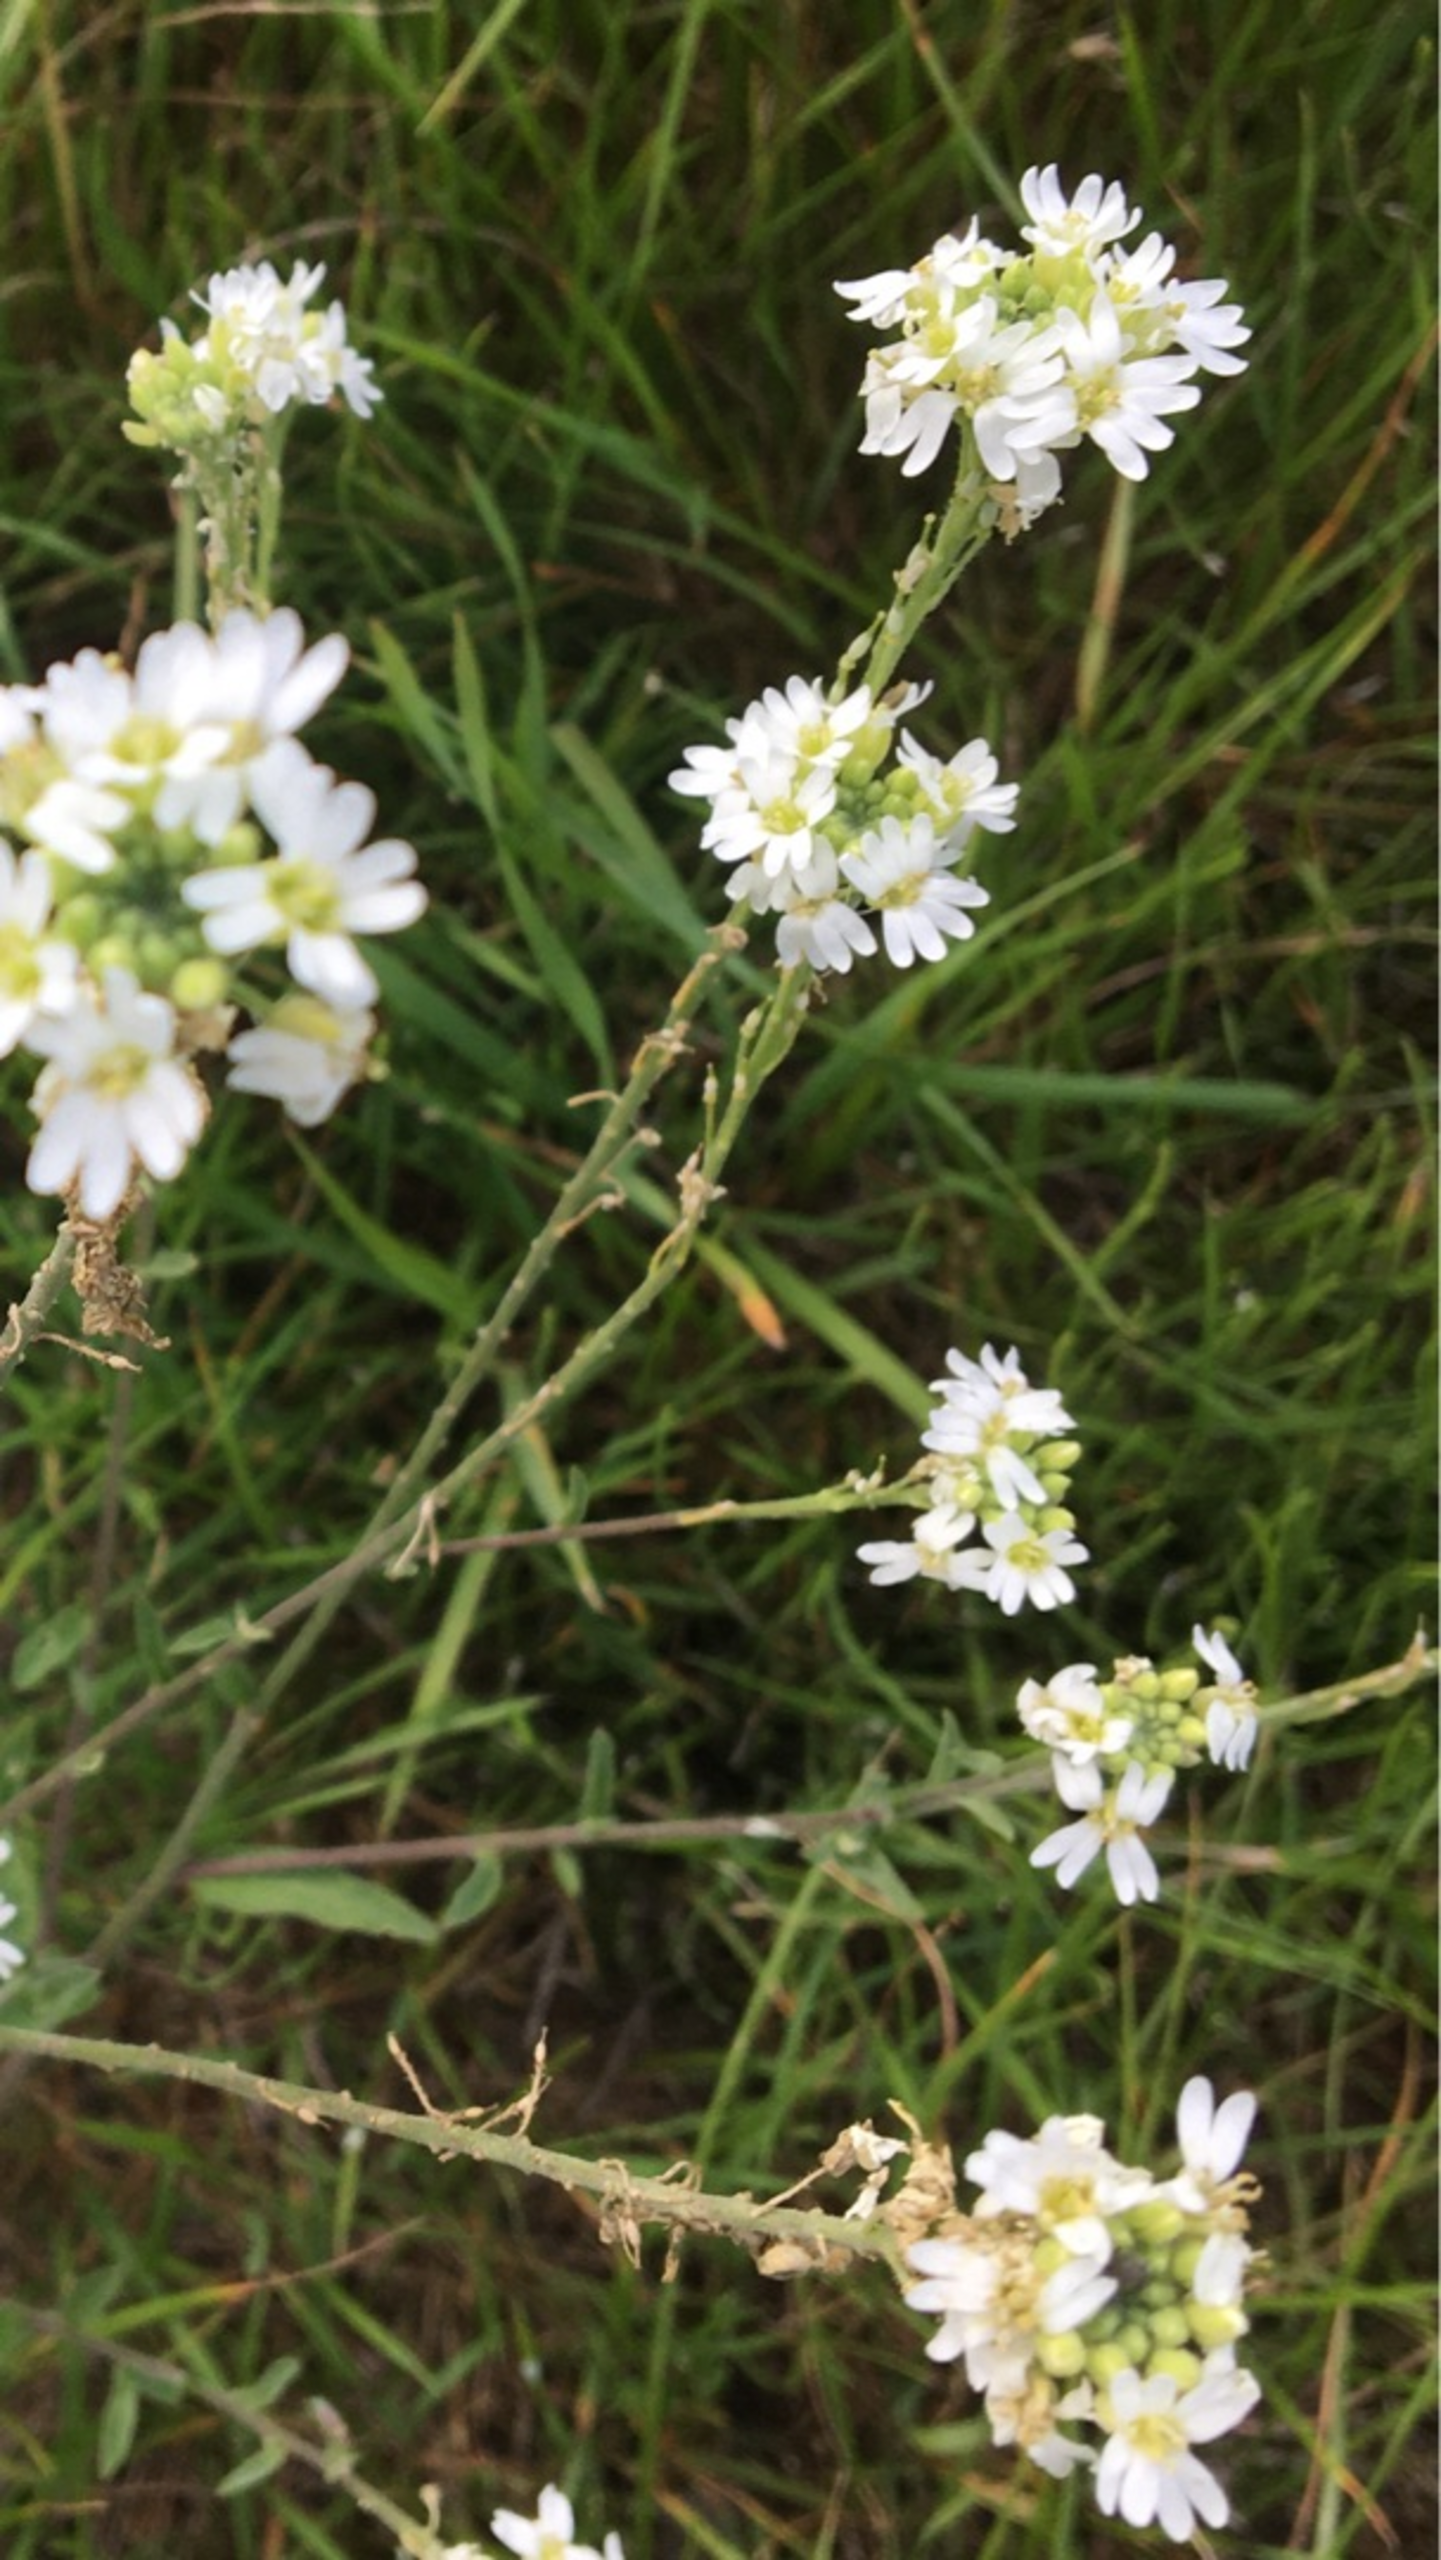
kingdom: Plantae
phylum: Tracheophyta
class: Magnoliopsida
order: Brassicales
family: Brassicaceae
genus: Berteroa
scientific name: Berteroa incana
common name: Kløvplade
